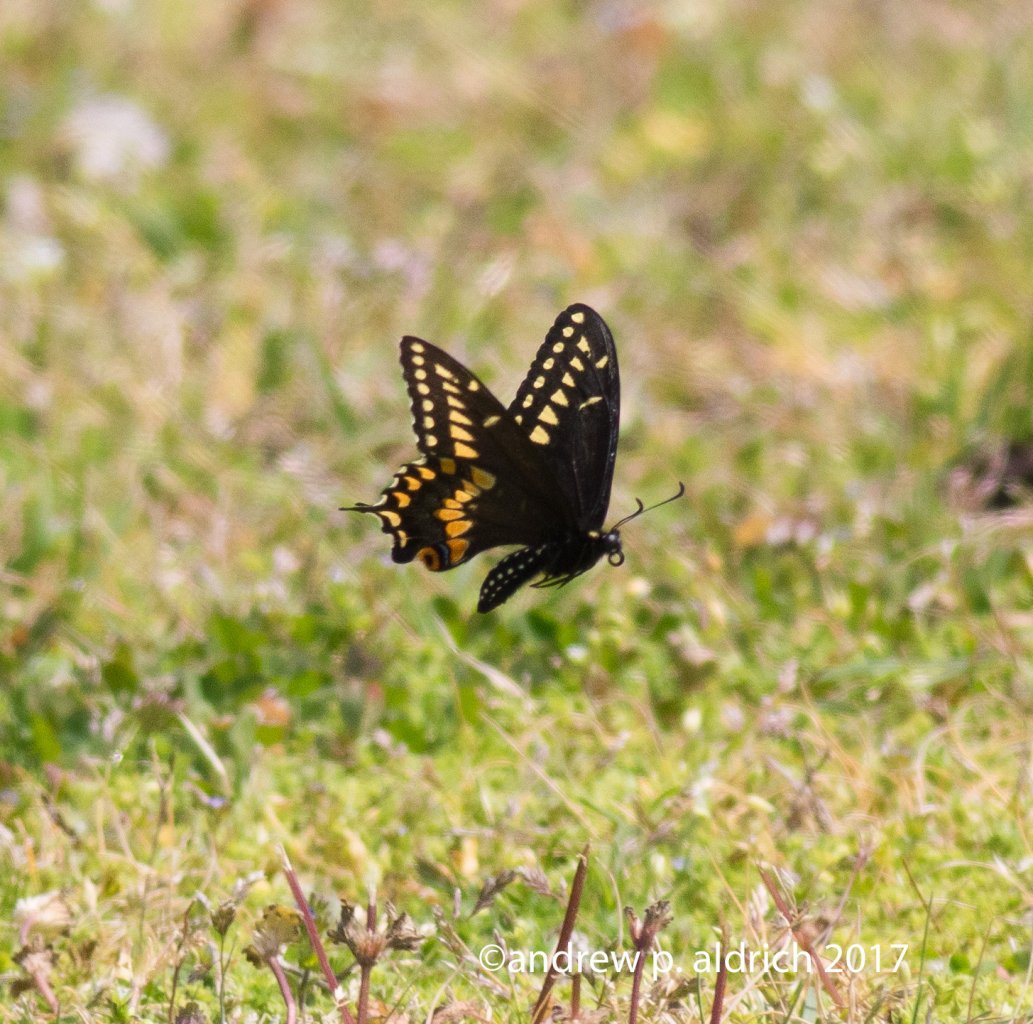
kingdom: Animalia
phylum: Arthropoda
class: Insecta
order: Lepidoptera
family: Papilionidae
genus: Papilio
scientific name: Papilio polyxenes
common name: Black Swallowtail
